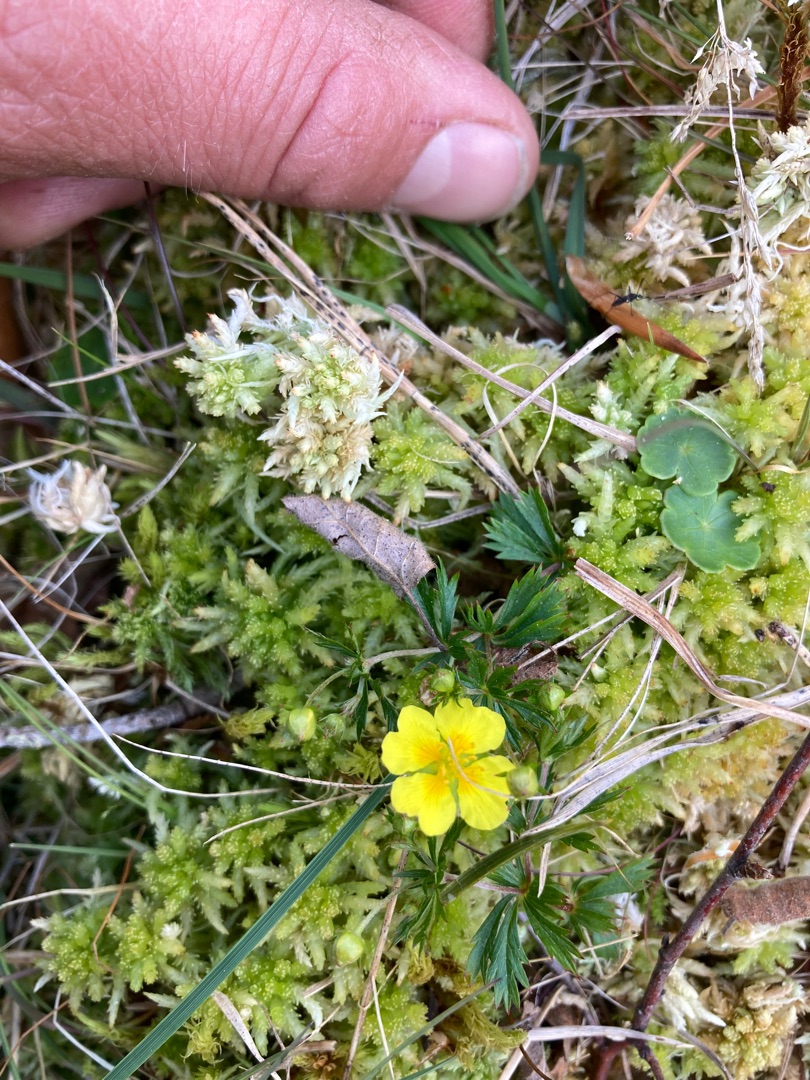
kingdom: Plantae
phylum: Tracheophyta
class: Magnoliopsida
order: Rosales
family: Rosaceae
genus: Potentilla
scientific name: Potentilla erecta
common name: Tormentil
